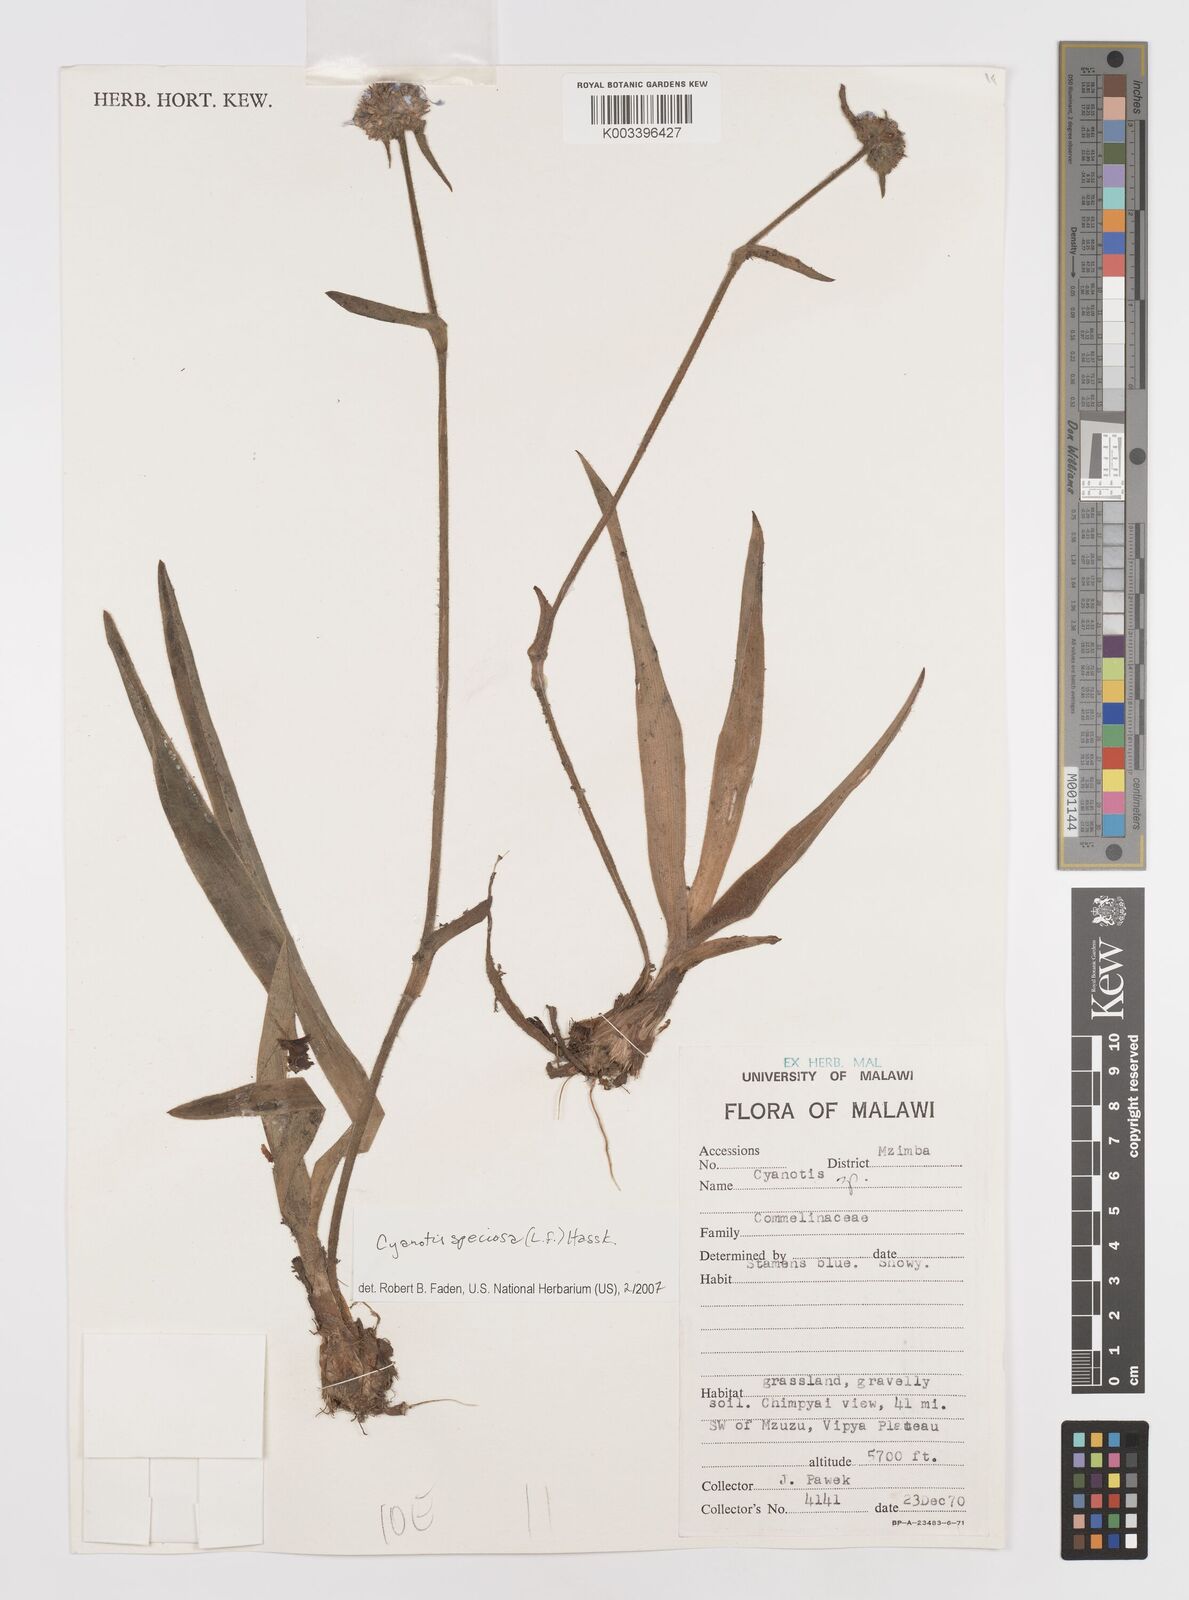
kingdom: Plantae
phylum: Tracheophyta
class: Liliopsida
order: Commelinales
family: Commelinaceae
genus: Cyanotis
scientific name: Cyanotis speciosa
